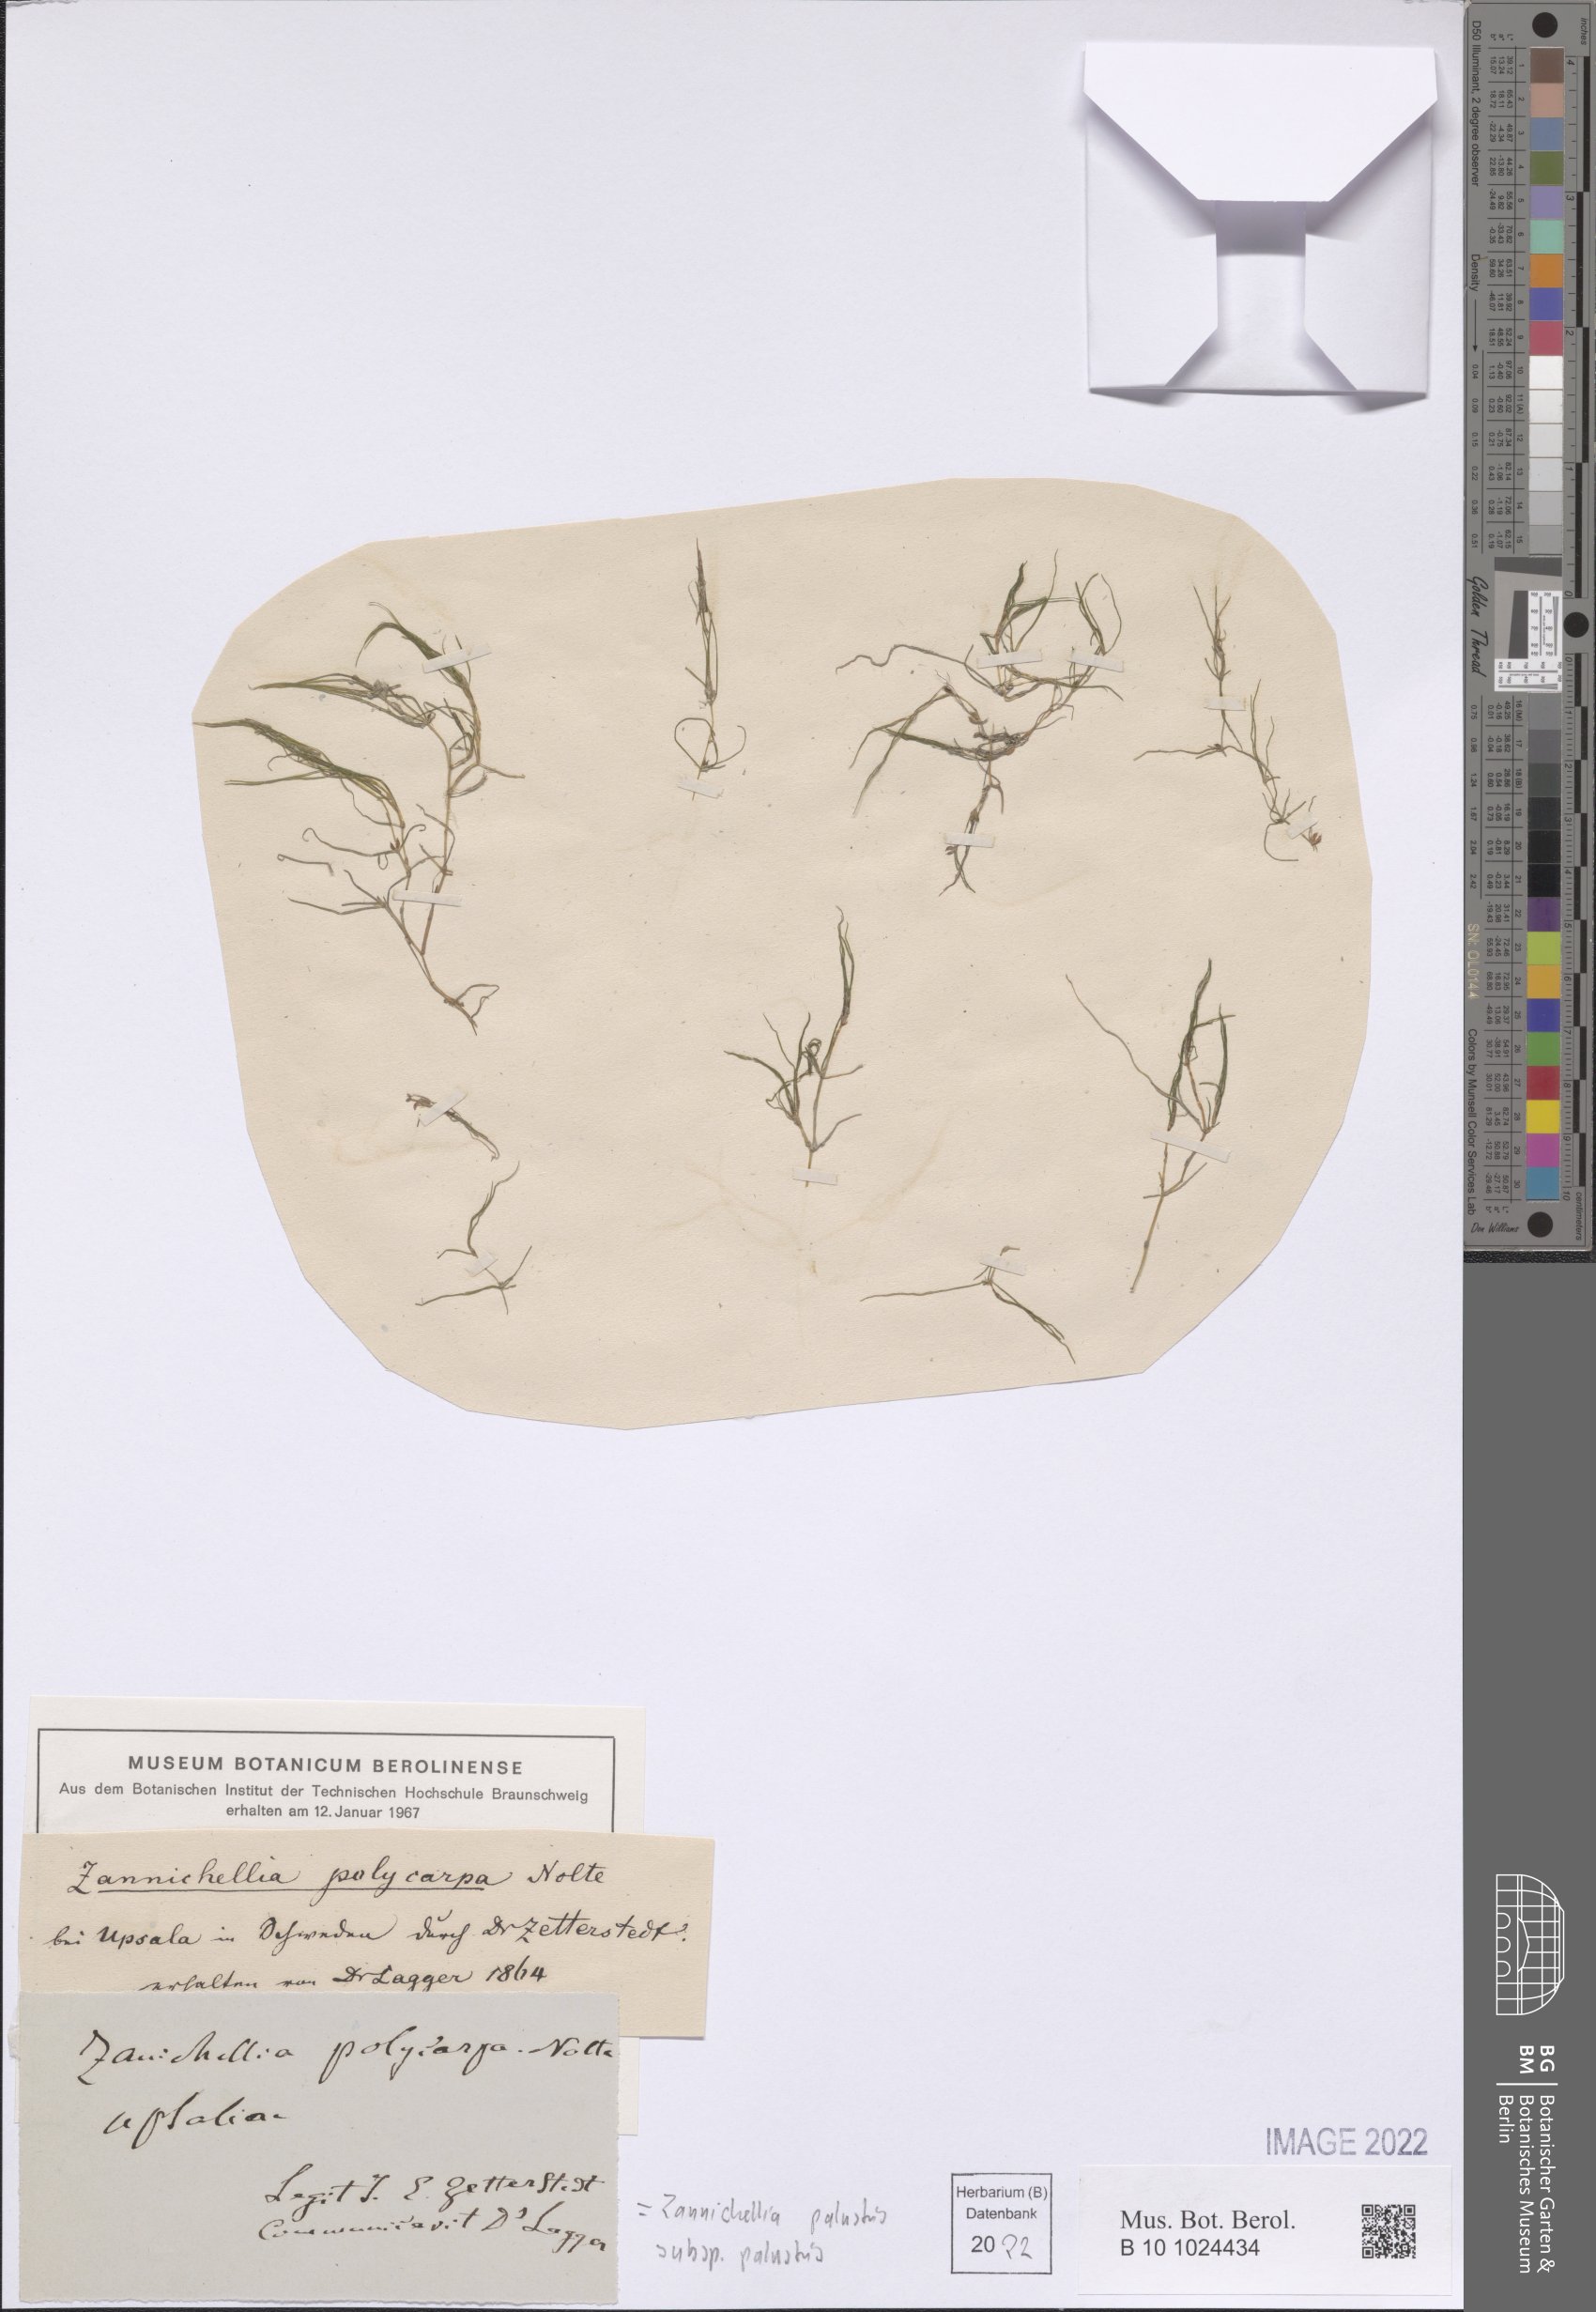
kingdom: Plantae
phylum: Tracheophyta
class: Liliopsida
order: Alismatales
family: Potamogetonaceae
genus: Zannichellia
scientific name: Zannichellia palustris
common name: Horned pondweed
